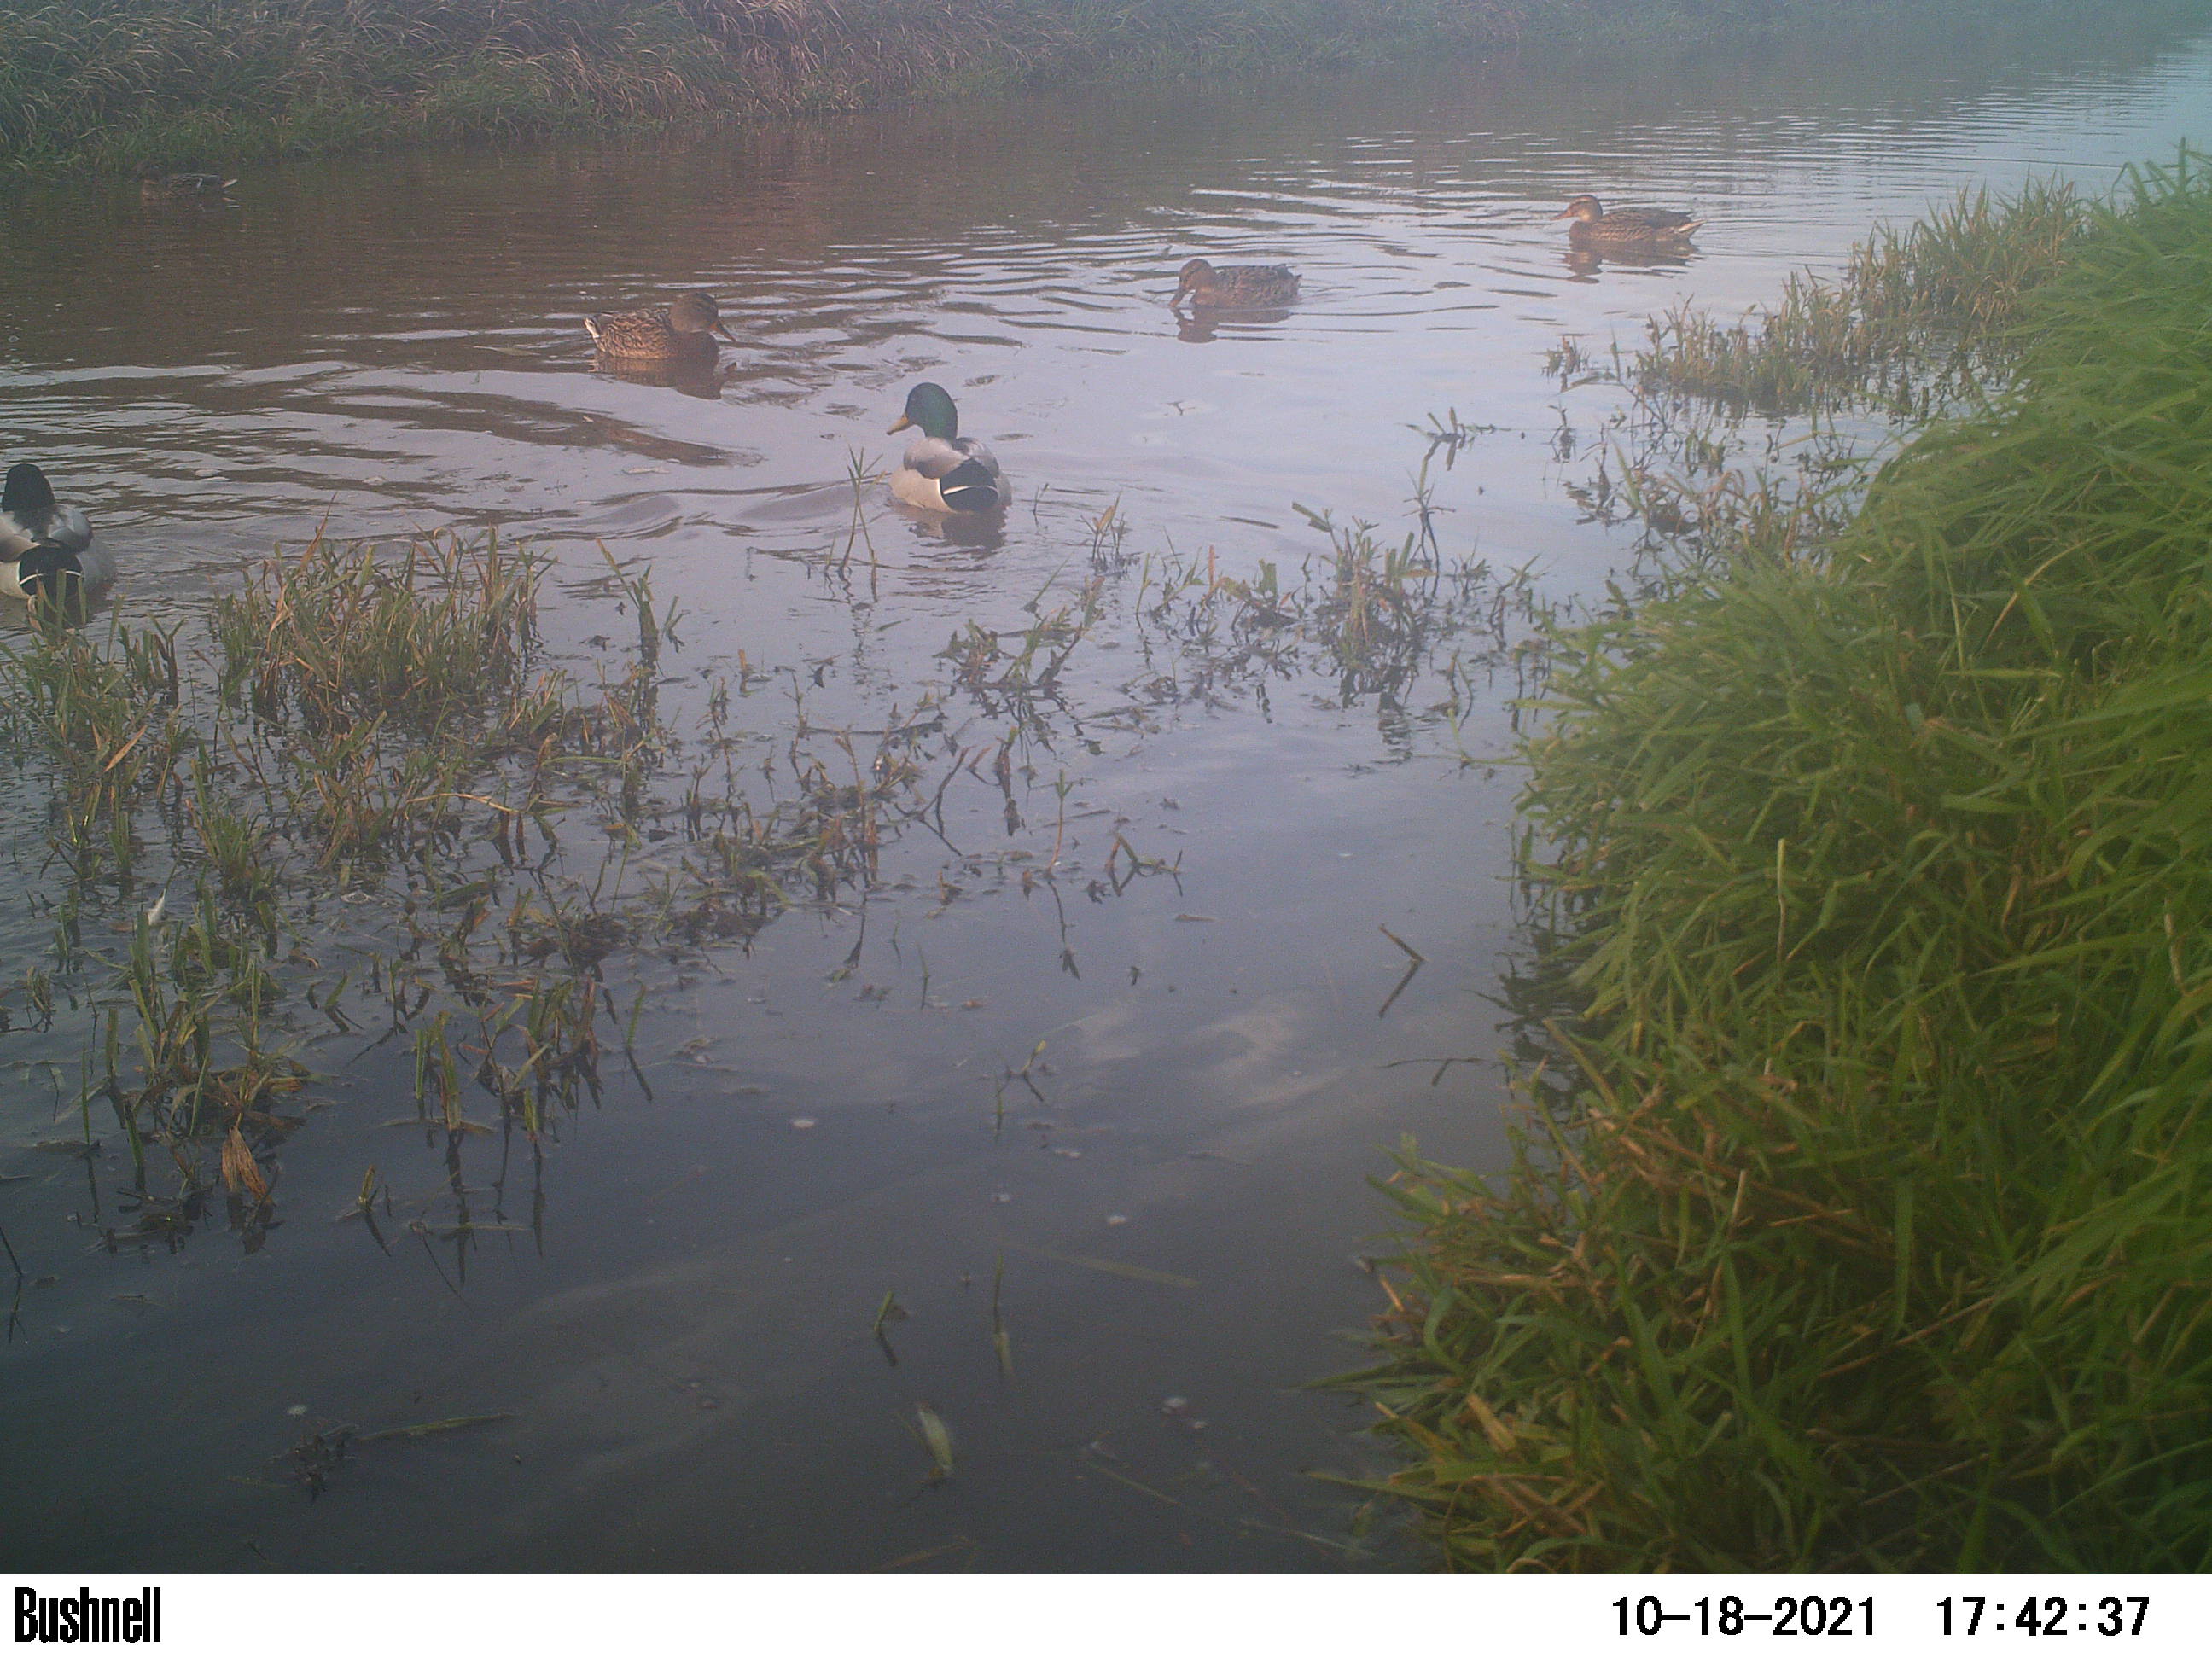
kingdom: Animalia
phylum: Chordata
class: Aves
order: Anseriformes
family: Anatidae
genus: Anas
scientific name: Anas
